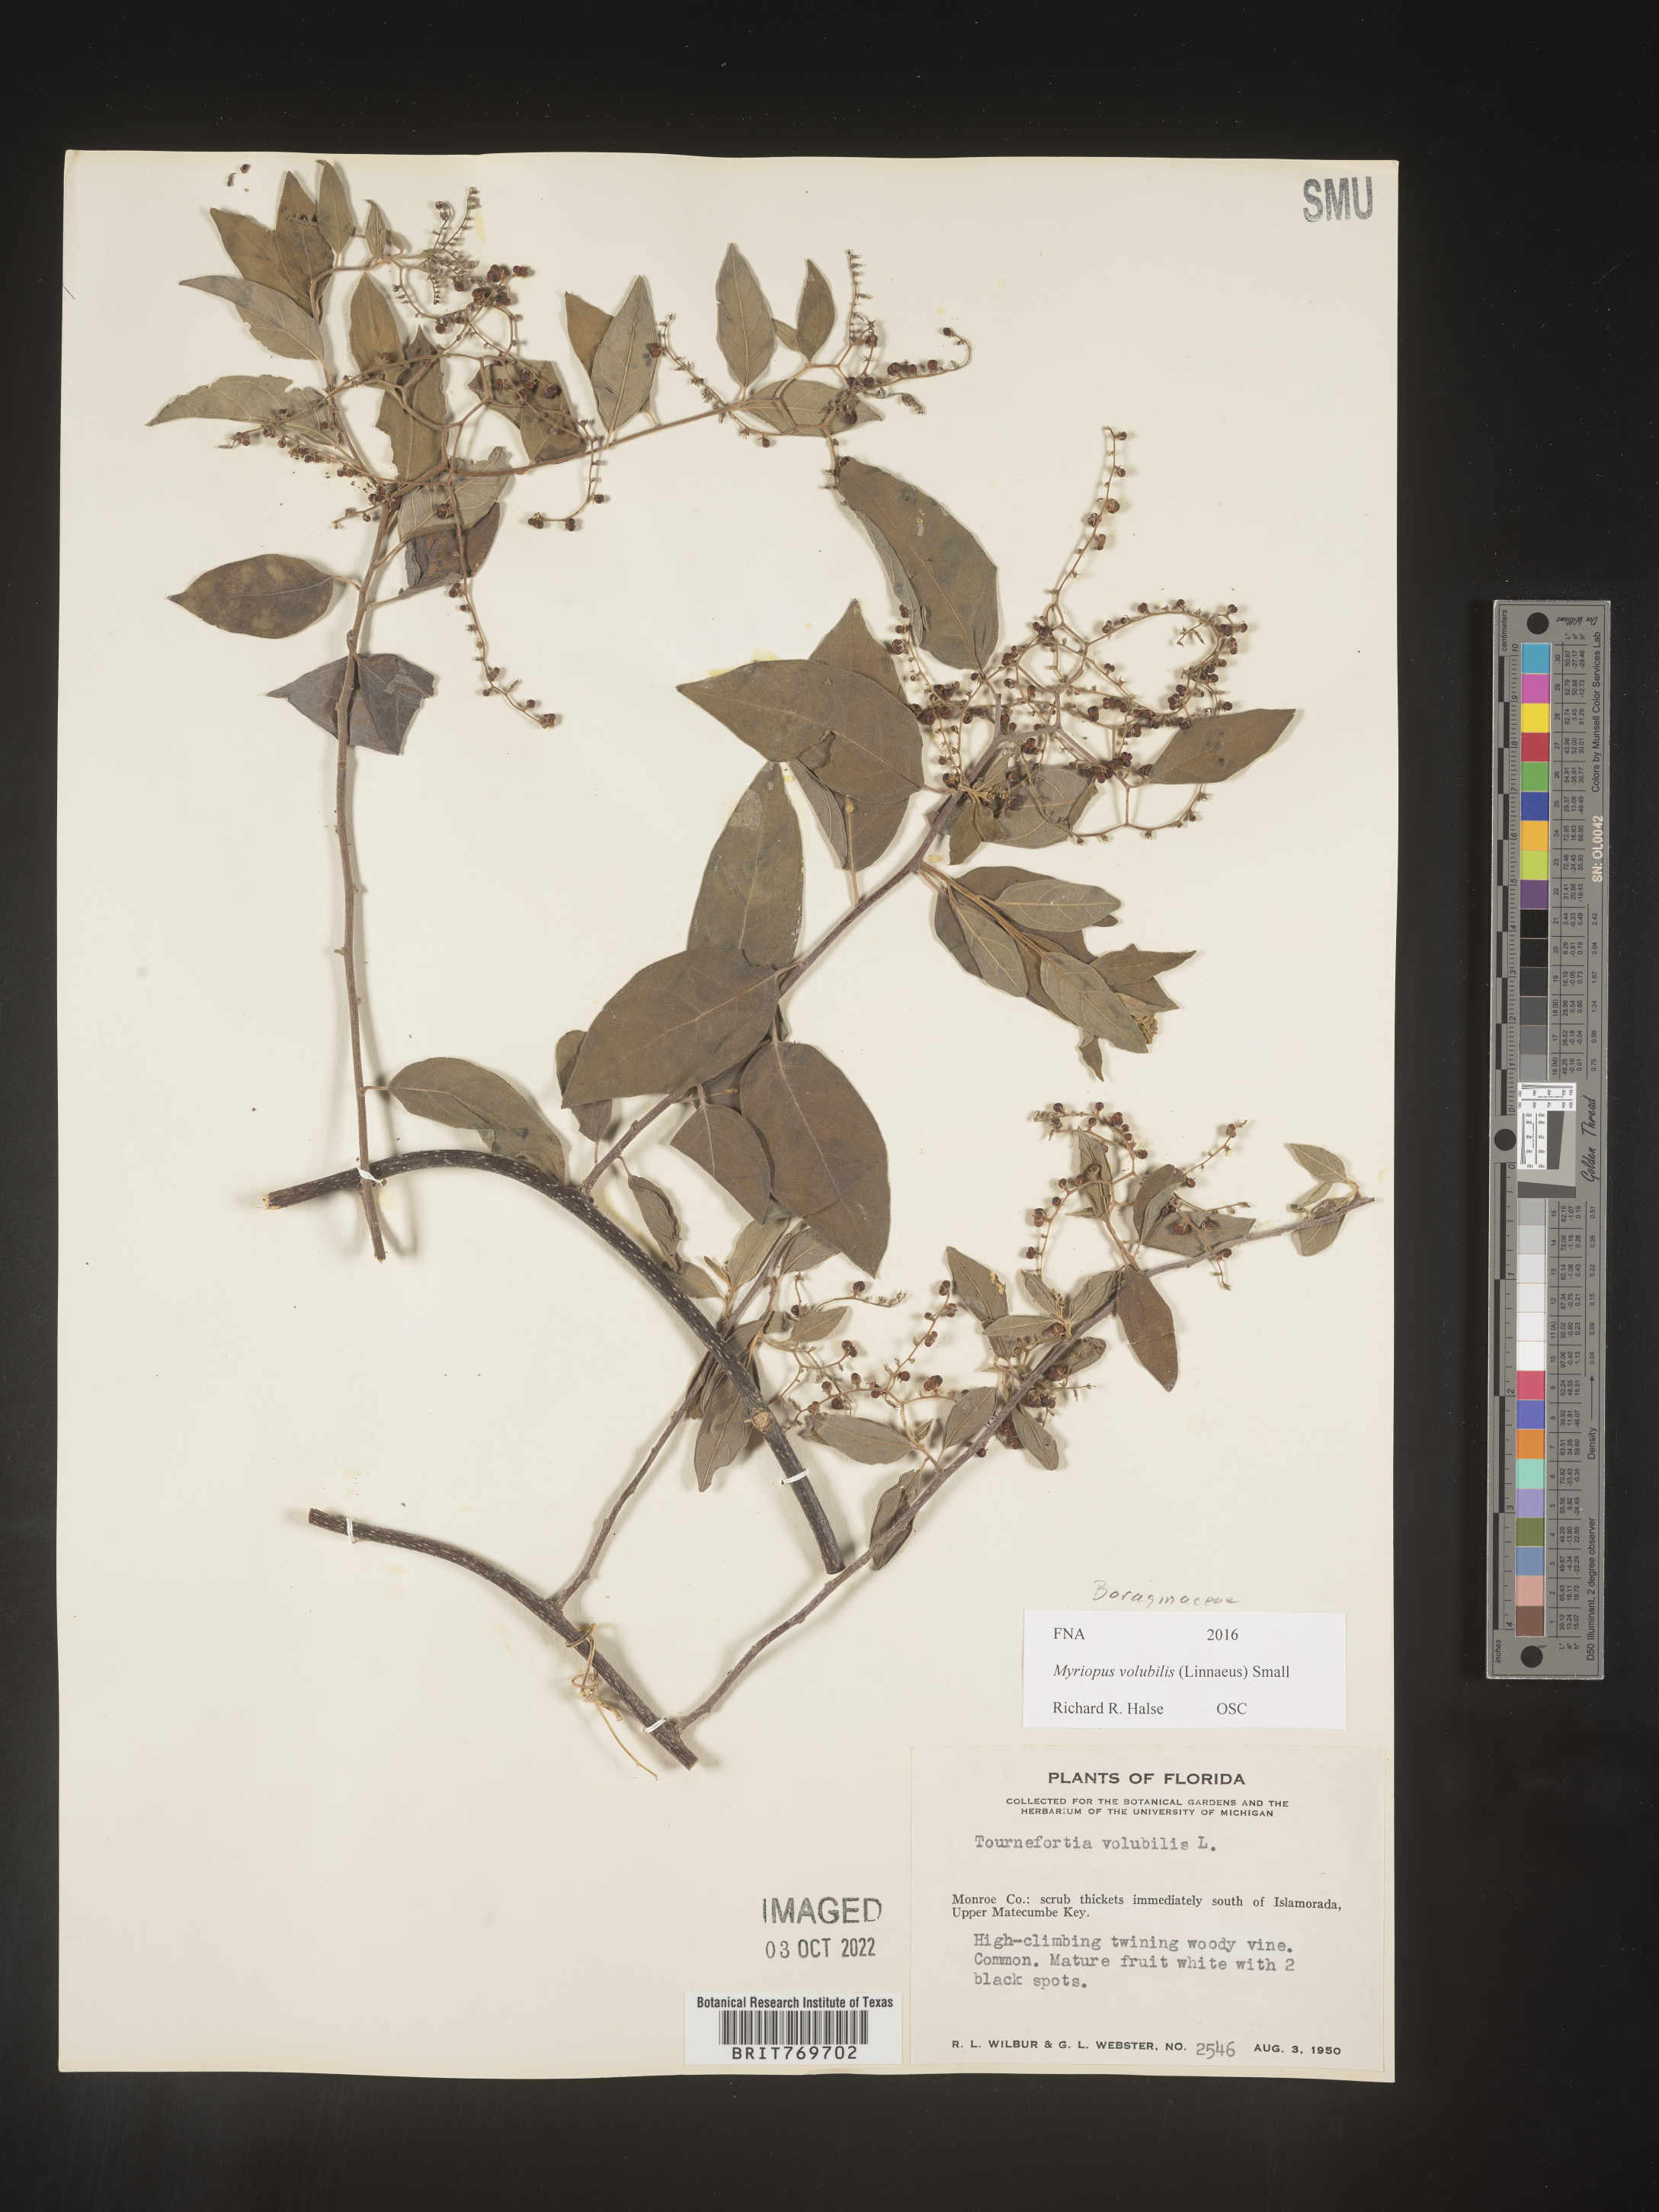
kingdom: Plantae
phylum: Tracheophyta
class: Magnoliopsida
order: Boraginales
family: Heliotropiaceae
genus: Myriopus
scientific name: Myriopus
